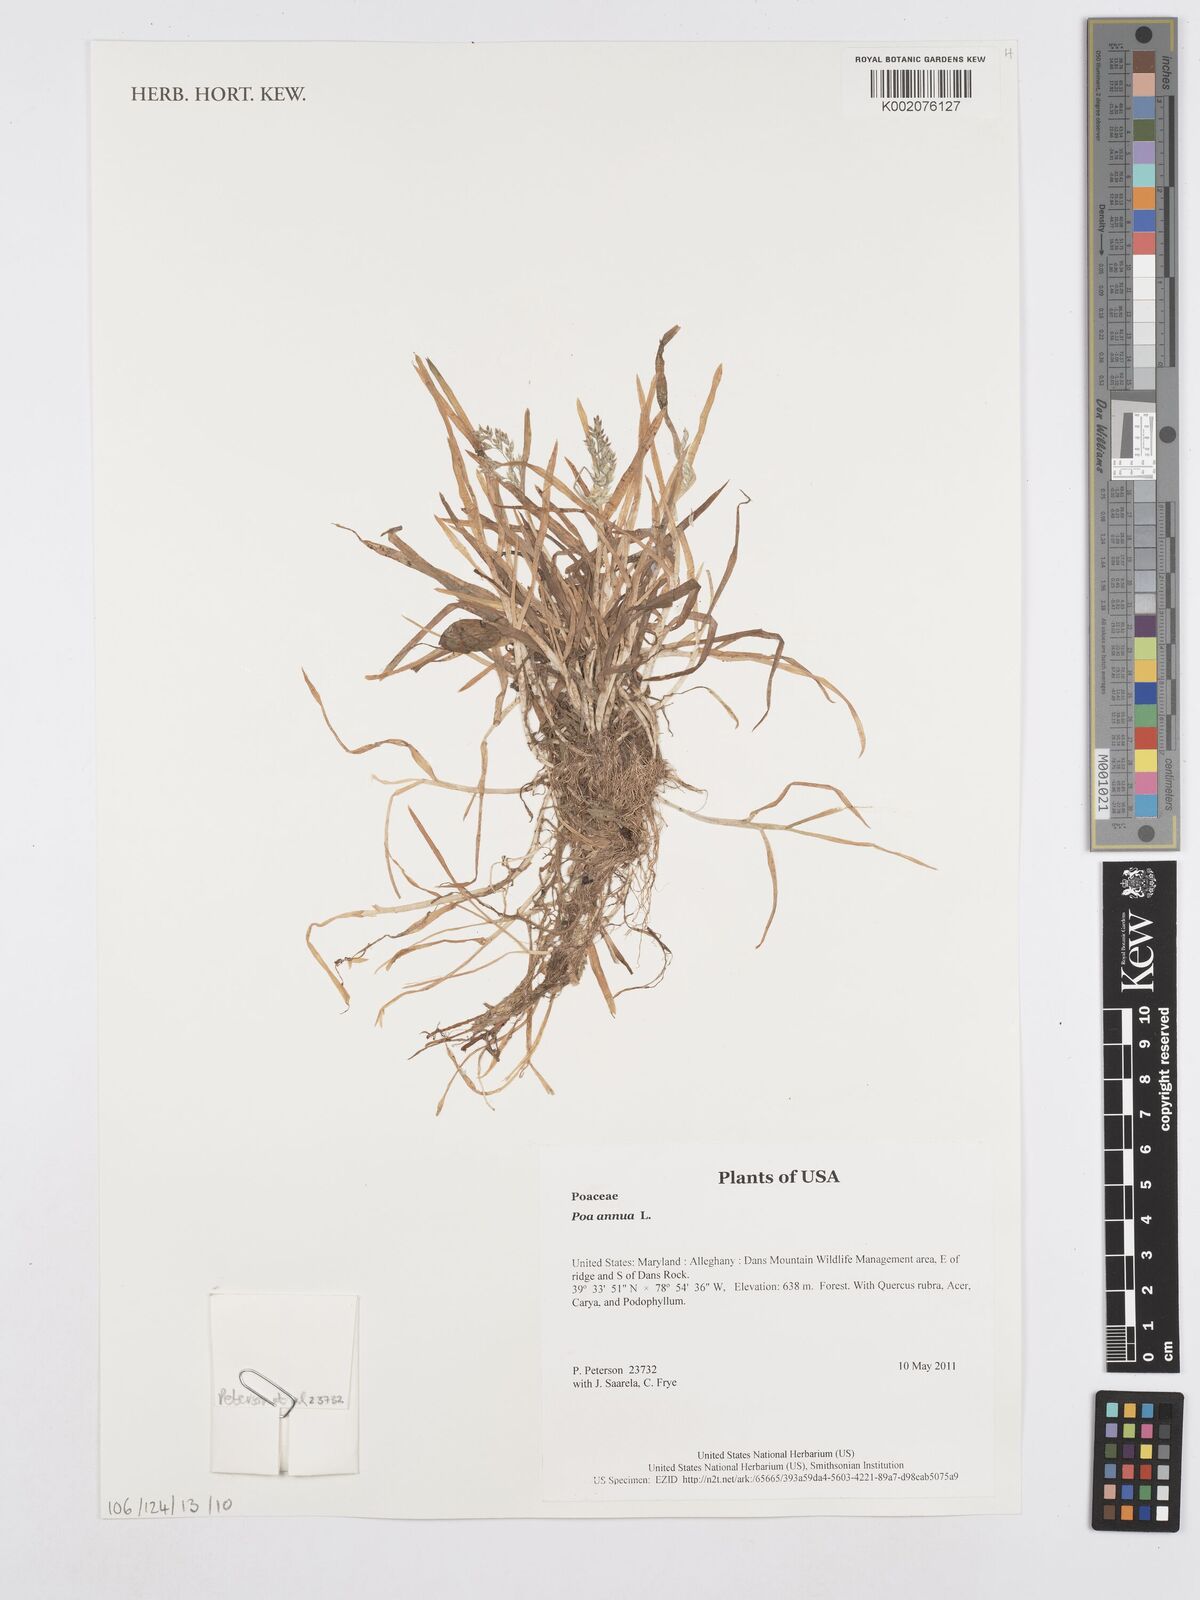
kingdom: Plantae
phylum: Tracheophyta
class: Liliopsida
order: Poales
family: Poaceae
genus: Poa
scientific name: Poa annua
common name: Annual bluegrass
